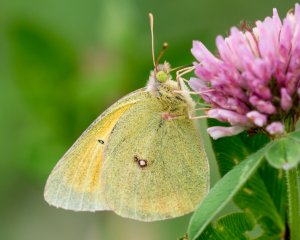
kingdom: Animalia
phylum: Arthropoda
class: Insecta
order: Lepidoptera
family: Pieridae
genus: Colias
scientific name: Colias christina
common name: Christina Sulphur
